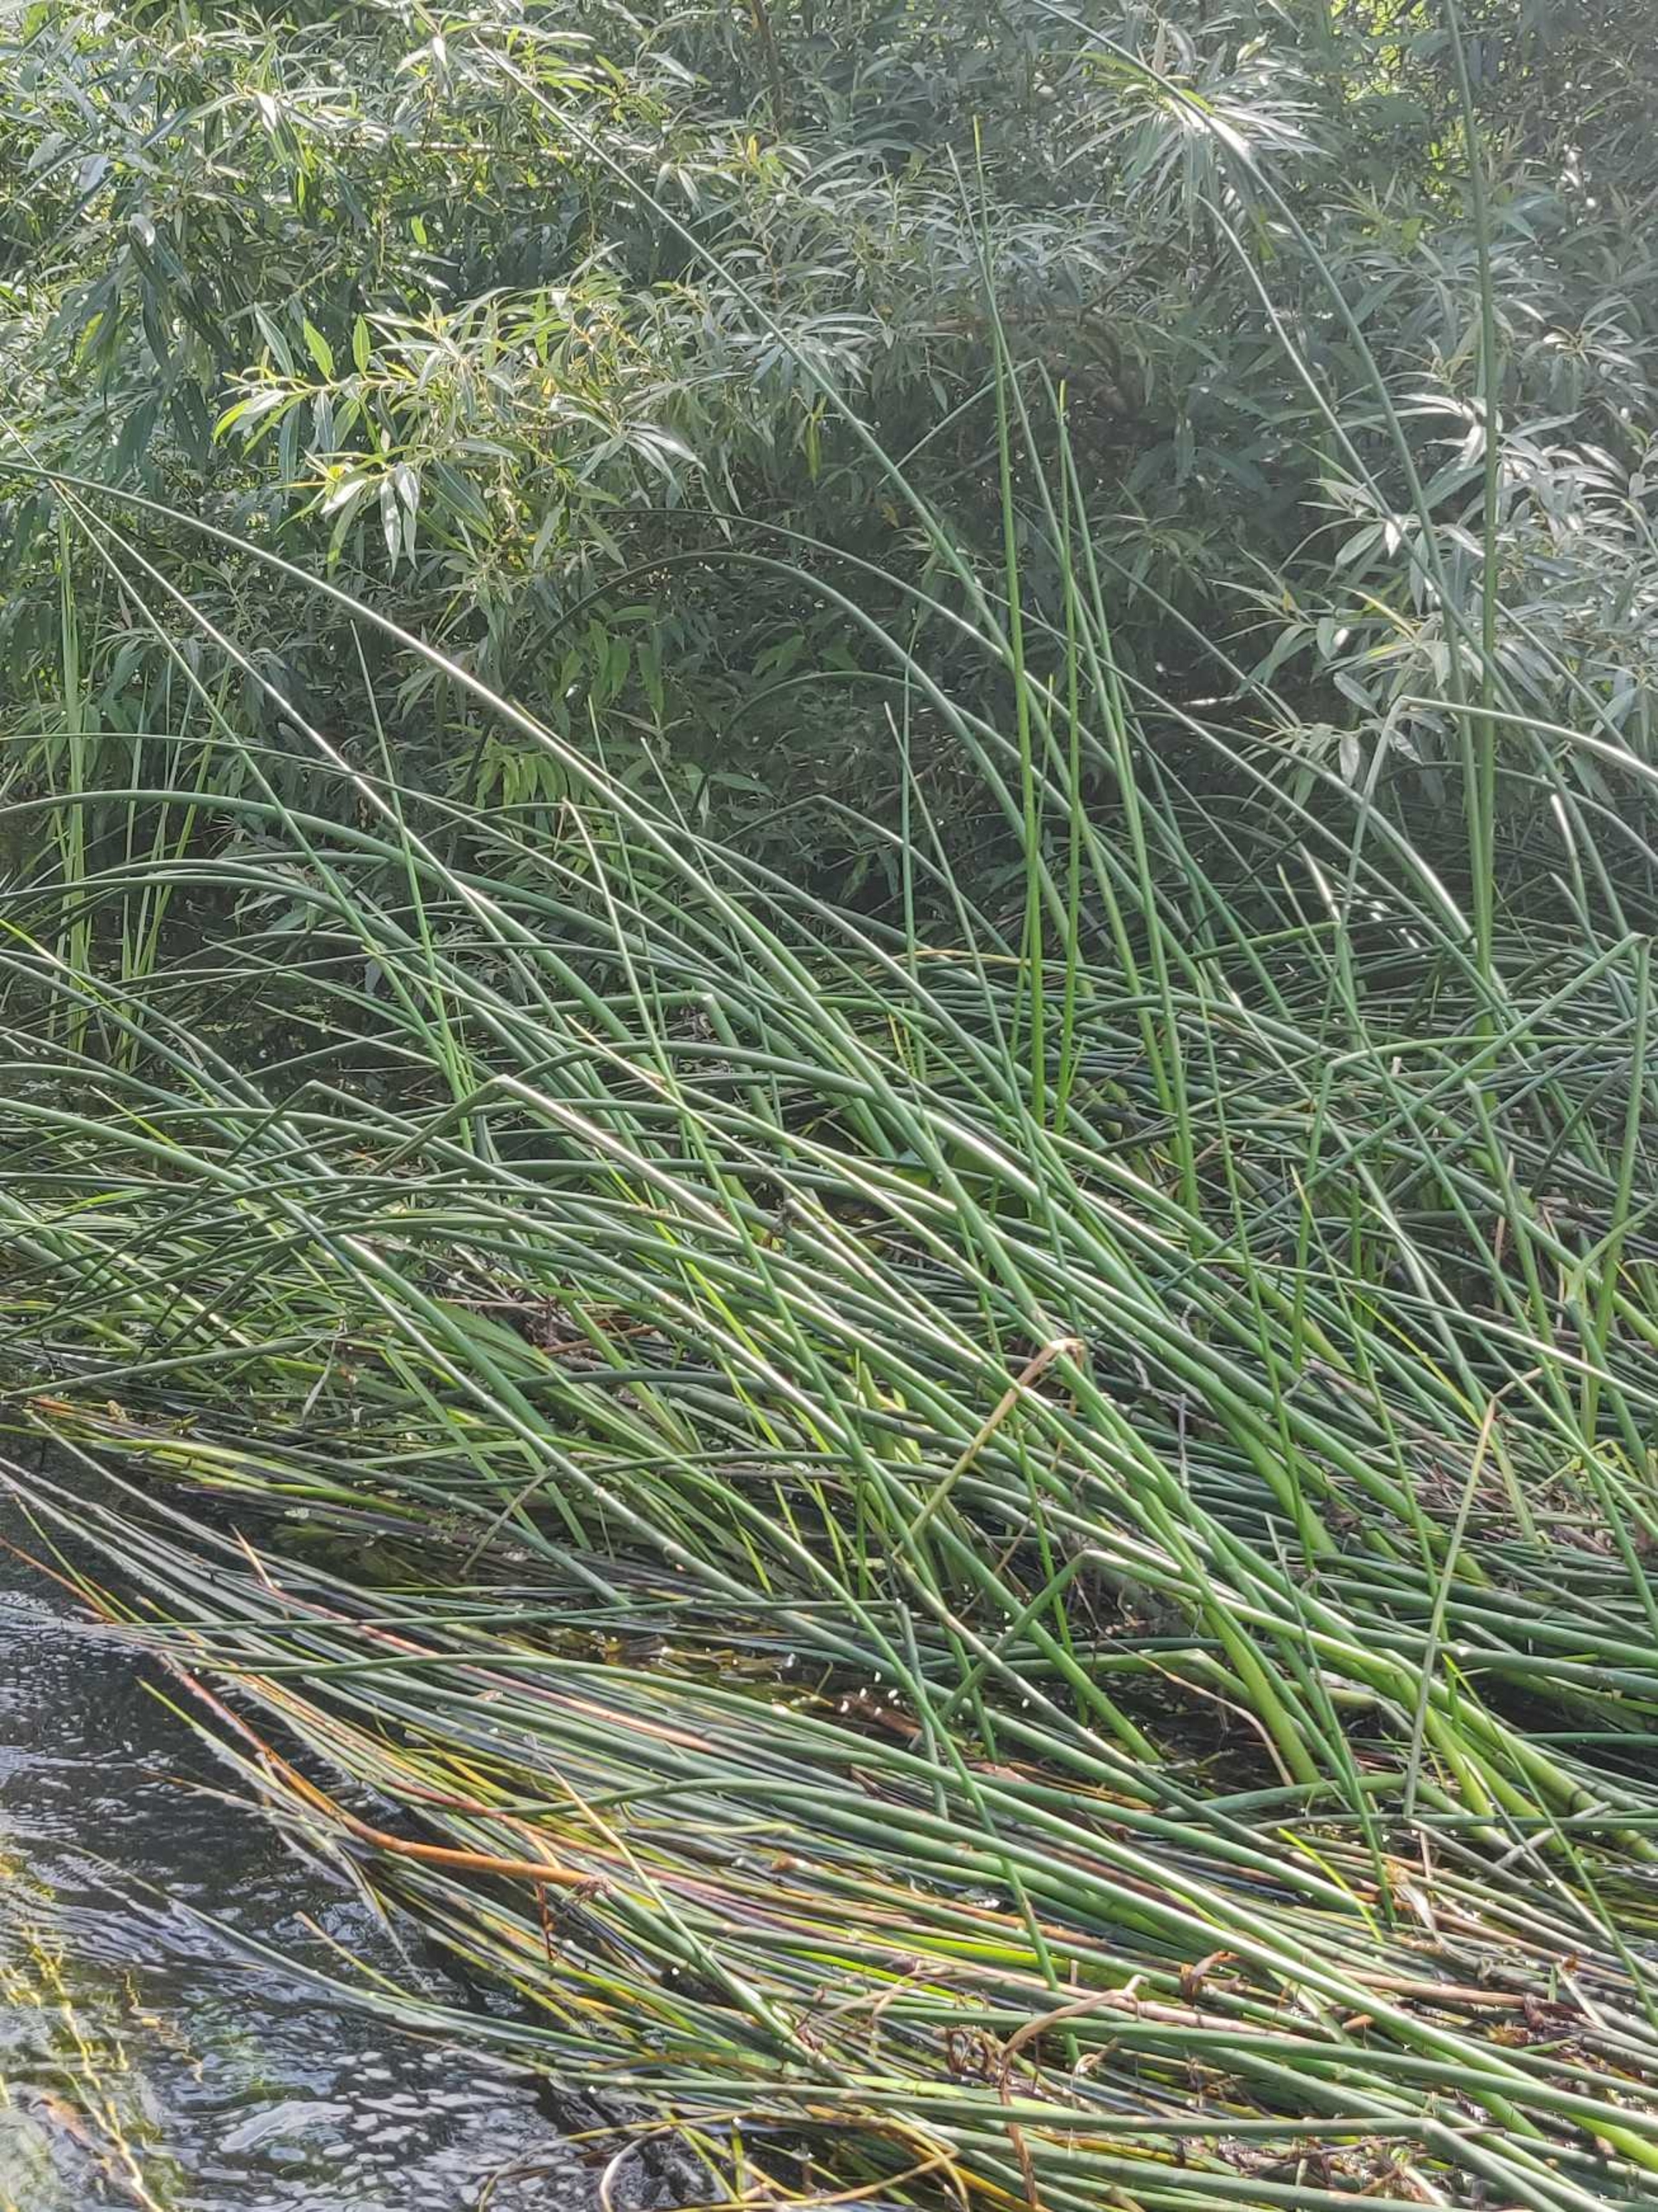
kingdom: Plantae
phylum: Tracheophyta
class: Liliopsida
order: Poales
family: Cyperaceae
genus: Schoenoplectus
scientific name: Schoenoplectus lacustris
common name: Sø-kogleaks
